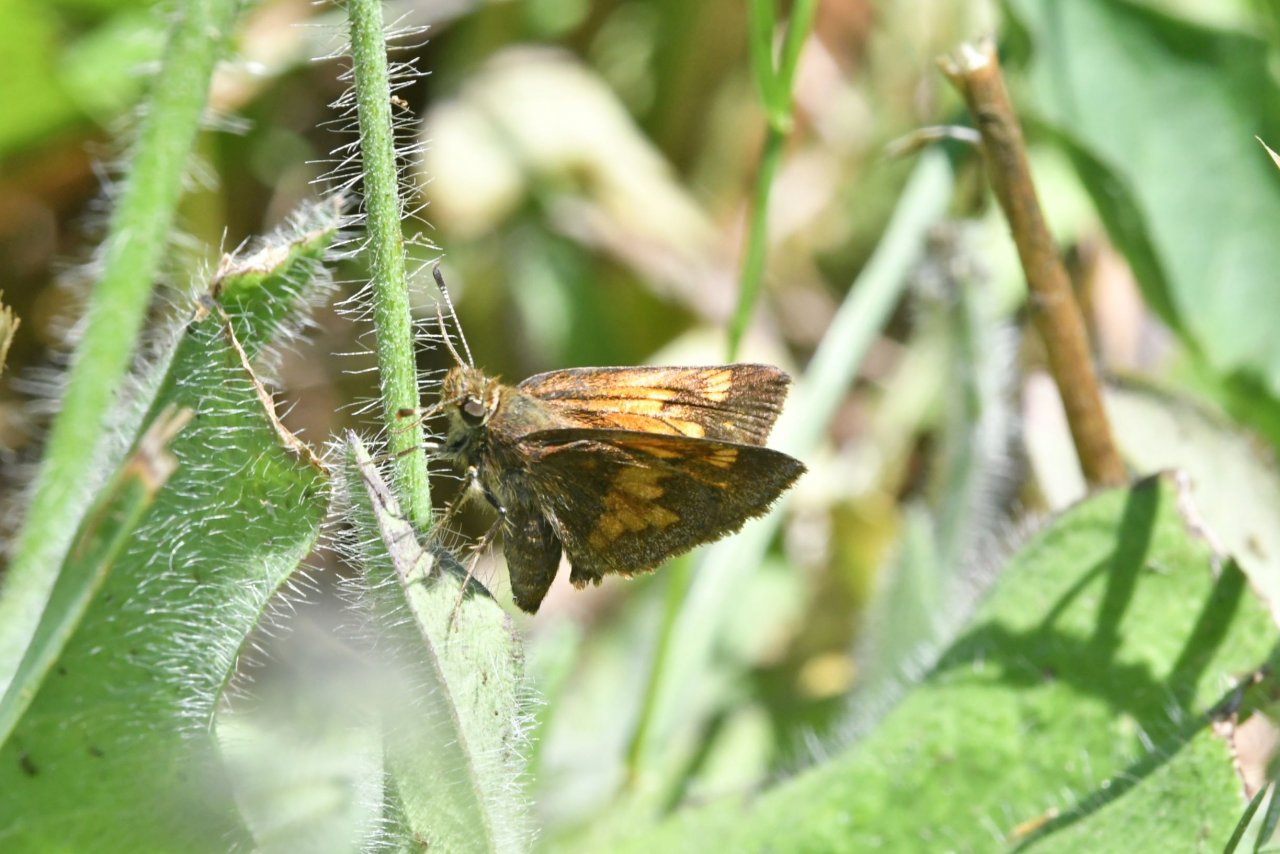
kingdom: Animalia
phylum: Arthropoda
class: Insecta
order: Lepidoptera
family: Hesperiidae
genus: Lon
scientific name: Lon hobomok
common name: Hobomok Skipper
